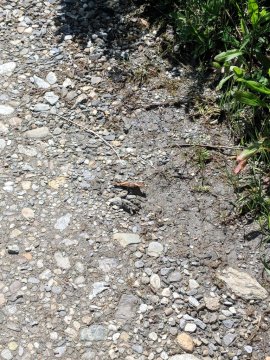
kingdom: Animalia
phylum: Arthropoda
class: Insecta
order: Lepidoptera
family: Nymphalidae
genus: Aglais
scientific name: Aglais milberti
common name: Milbert's Tortoiseshell
